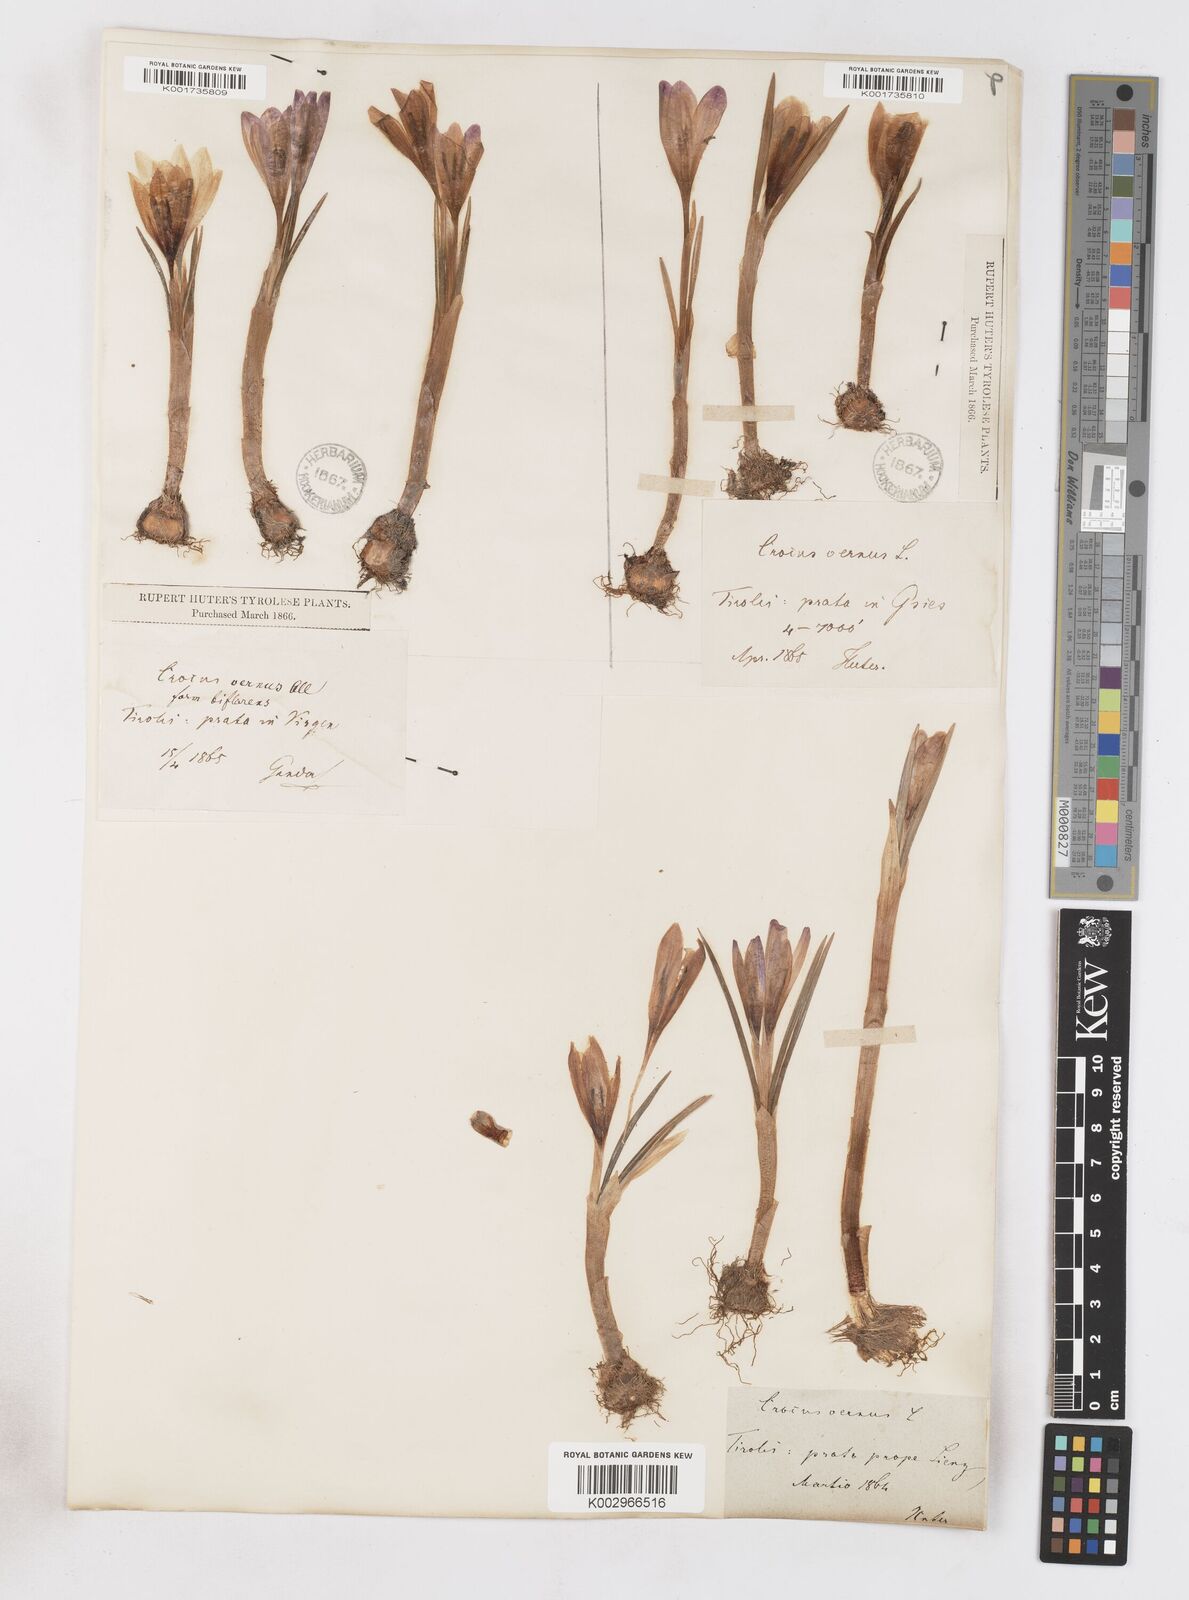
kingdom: Plantae
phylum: Tracheophyta
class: Liliopsida
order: Asparagales
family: Iridaceae
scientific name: Iridaceae
